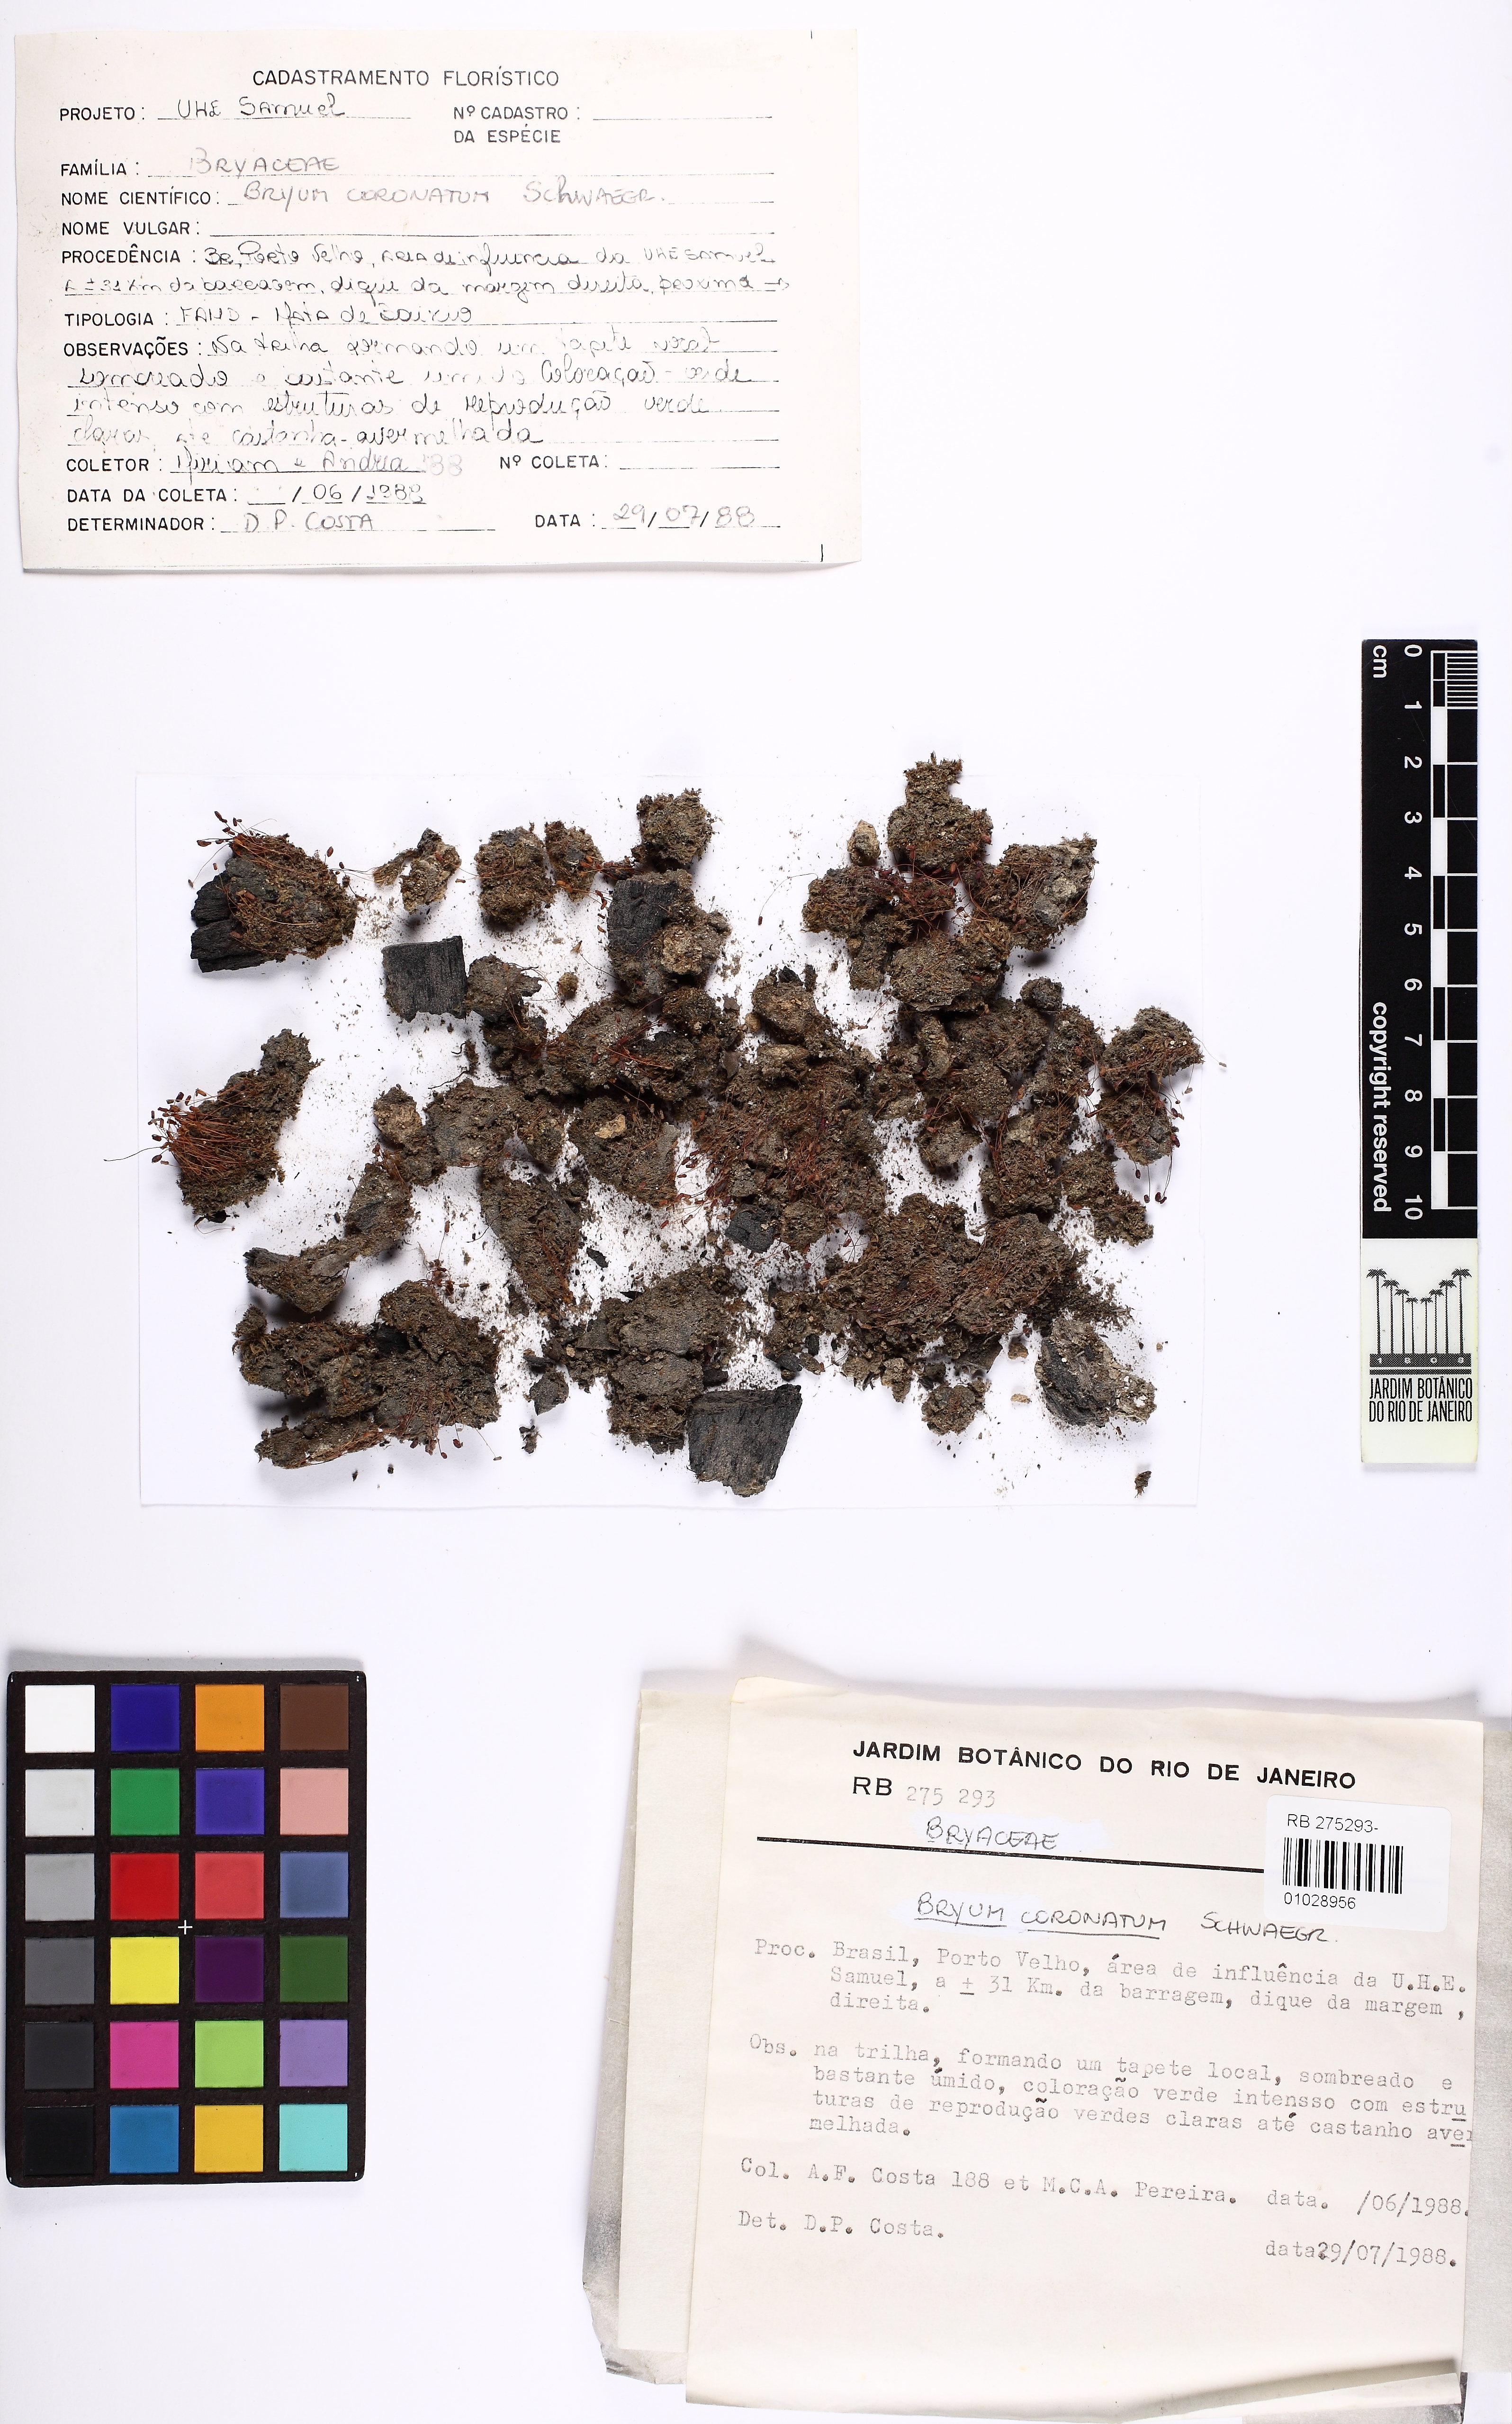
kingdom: Plantae
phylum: Bryophyta
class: Bryopsida
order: Bryales
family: Bryaceae
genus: Gemmabryum
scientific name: Gemmabryum coronatum
